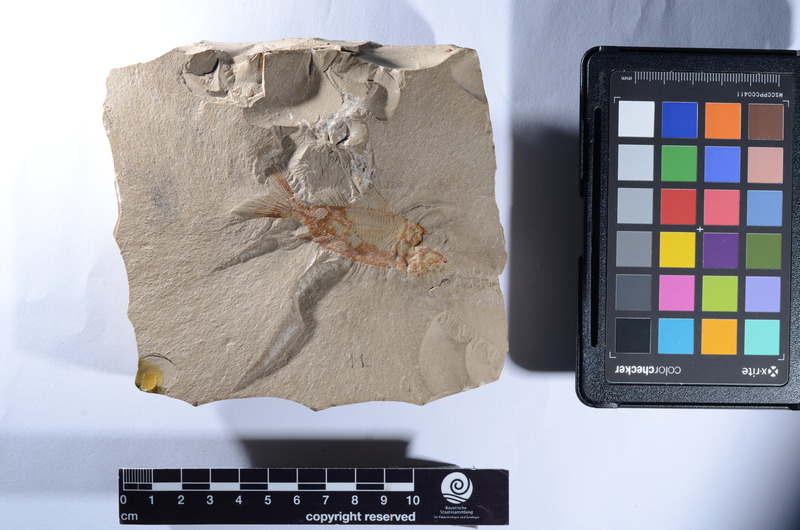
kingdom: Animalia
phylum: Chordata
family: Macrosemiidae
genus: Propterus
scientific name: Propterus microstomus
